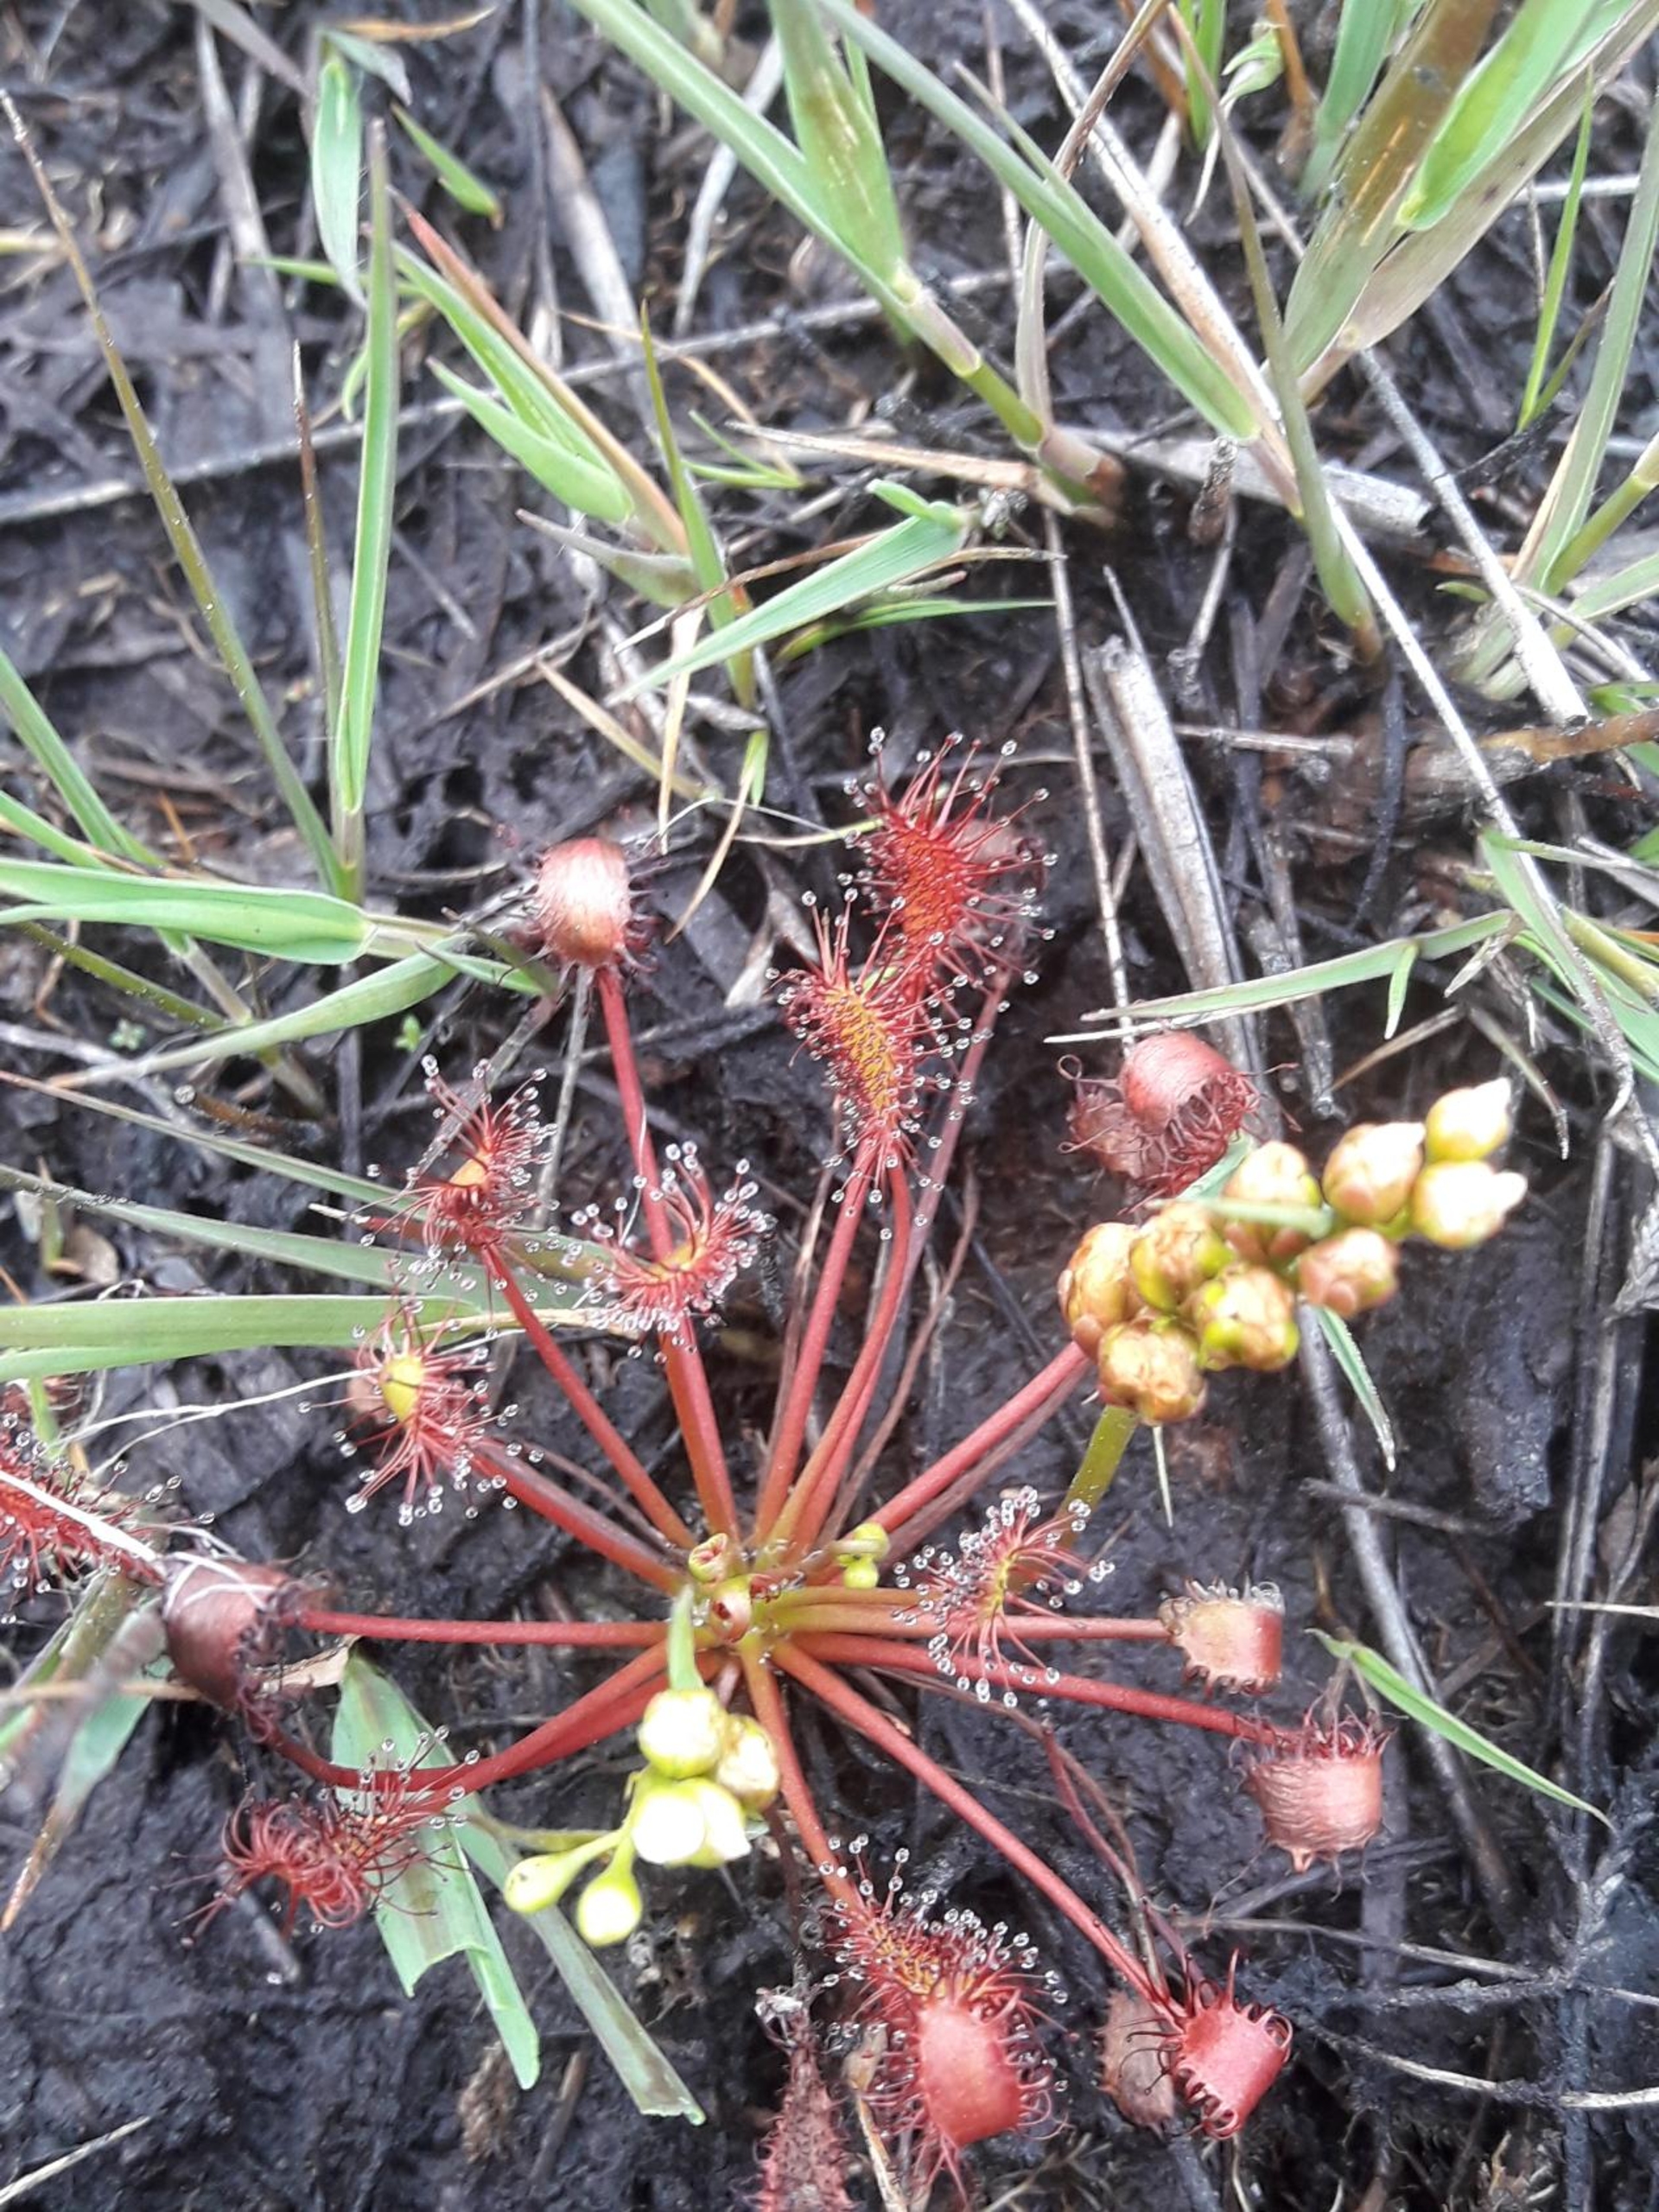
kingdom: Plantae
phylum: Tracheophyta
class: Magnoliopsida
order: Caryophyllales
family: Droseraceae
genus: Drosera
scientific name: Drosera intermedia
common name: Liden soldug
